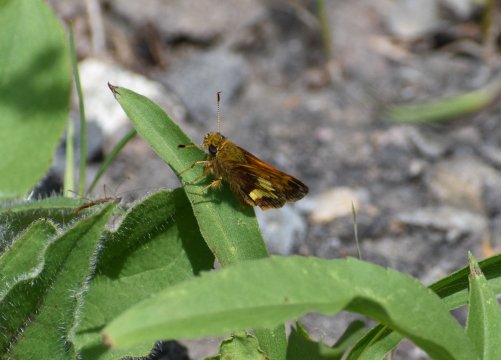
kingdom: Animalia
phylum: Arthropoda
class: Insecta
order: Lepidoptera
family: Hesperiidae
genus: Lon
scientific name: Lon hobomok
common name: Hobomok Skipper
